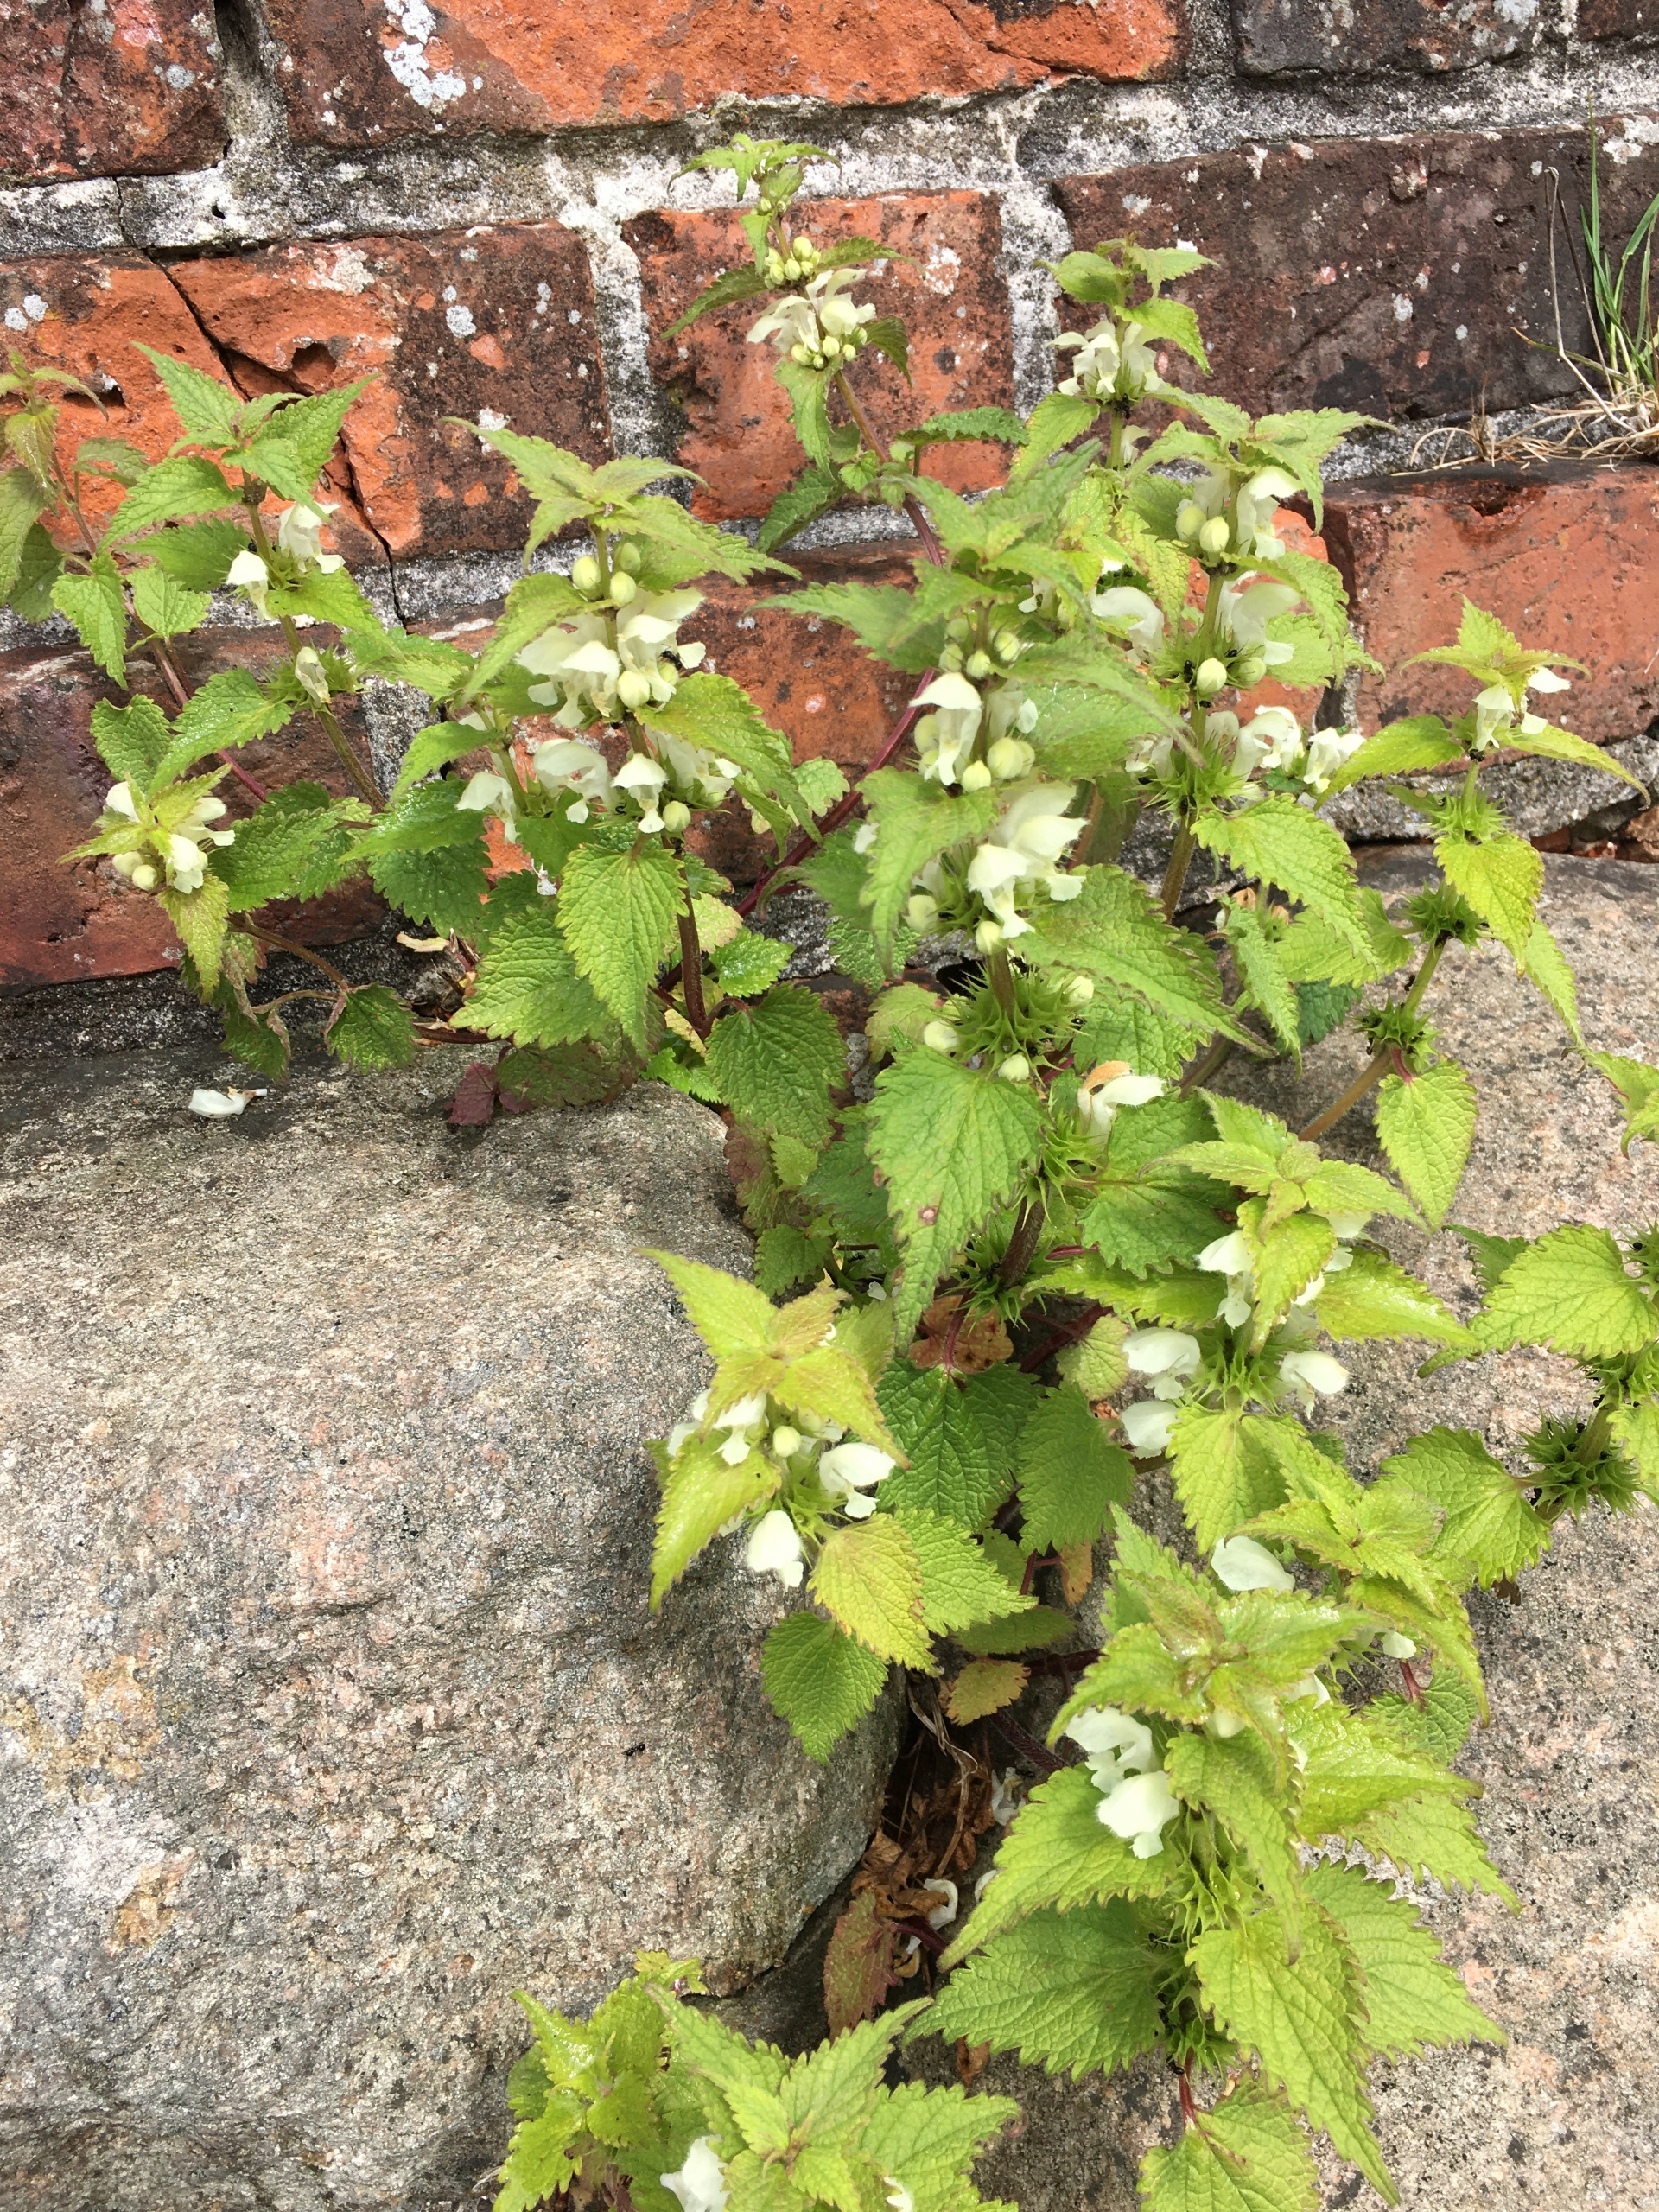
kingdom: Plantae
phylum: Tracheophyta
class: Magnoliopsida
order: Lamiales
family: Lamiaceae
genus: Lamium
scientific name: Lamium album
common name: Døvnælde
